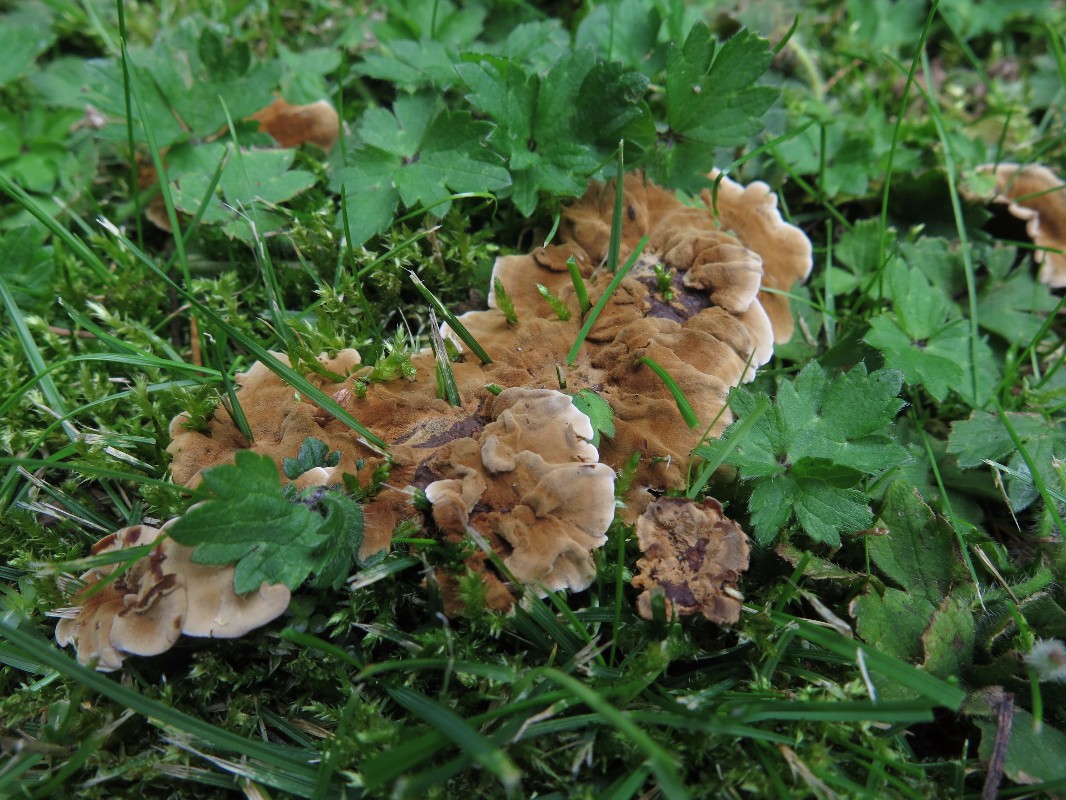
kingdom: Fungi
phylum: Basidiomycota
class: Agaricomycetes
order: Hymenochaetales
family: Hymenochaetaceae
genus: Coltricia
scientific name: Coltricia confluens
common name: park-sandporesvamp
